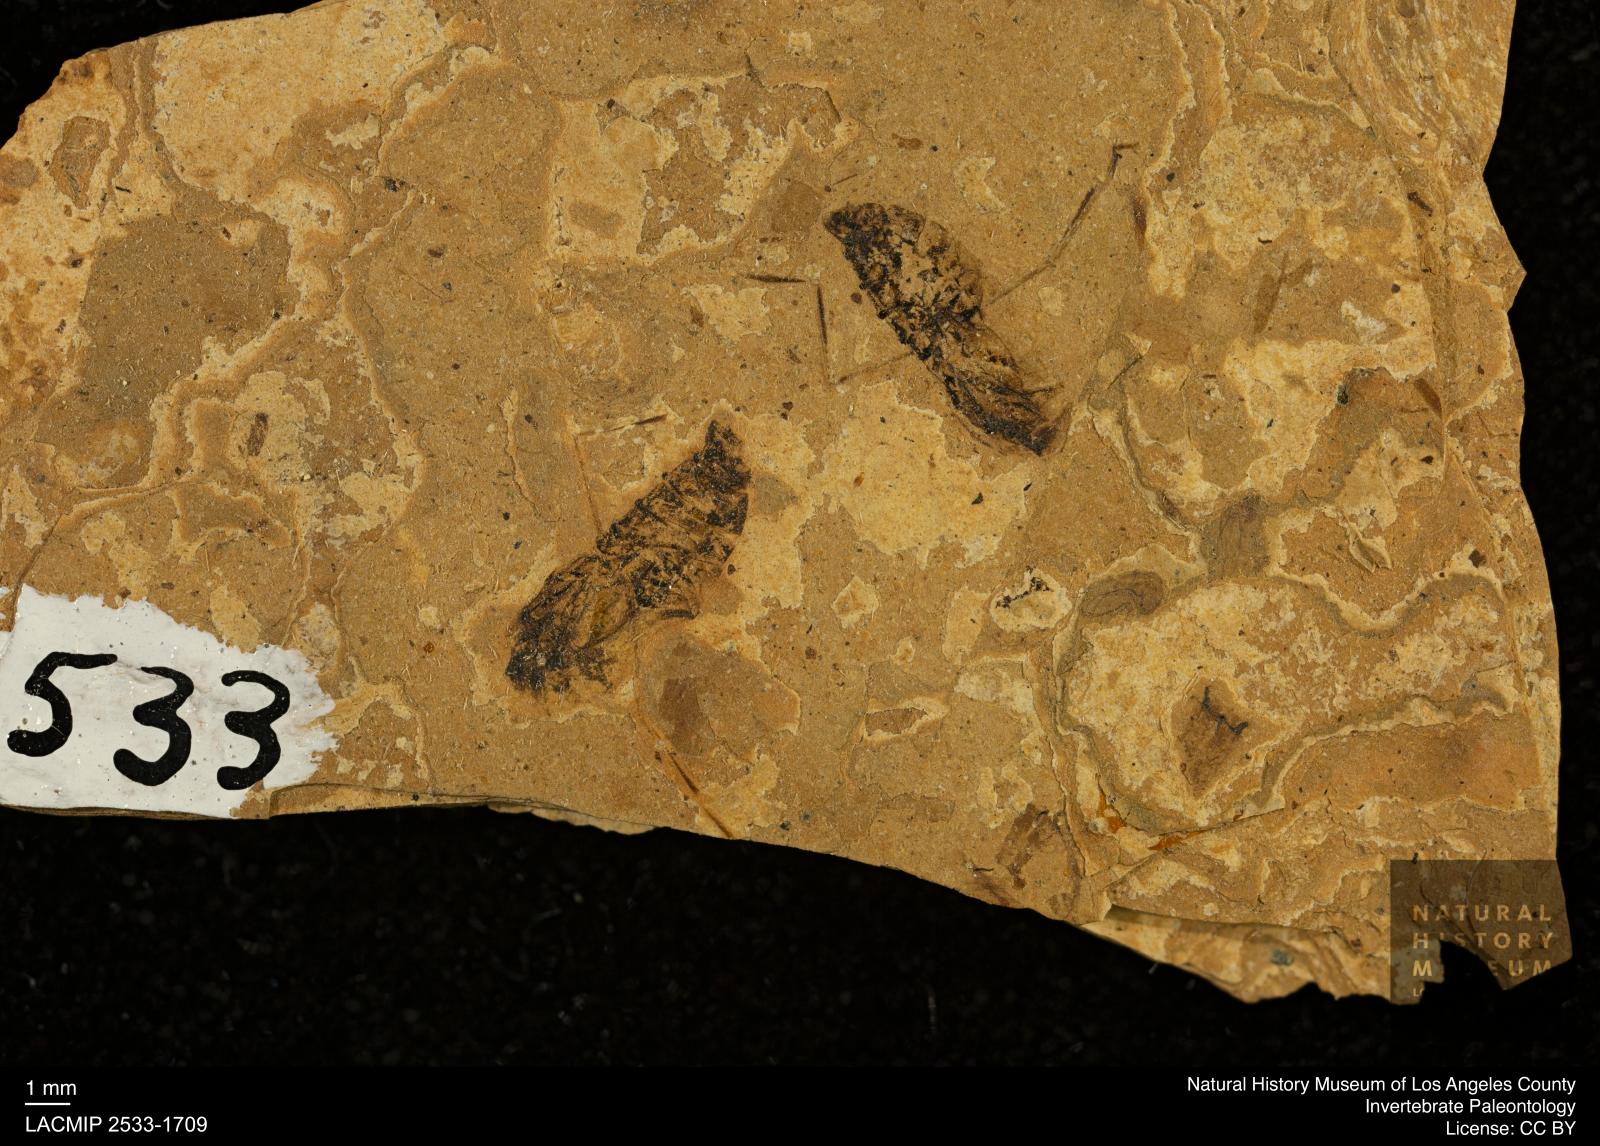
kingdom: Animalia
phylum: Arthropoda
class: Insecta
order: Hemiptera
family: Notonectidae
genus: Notonecta
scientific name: Notonecta
